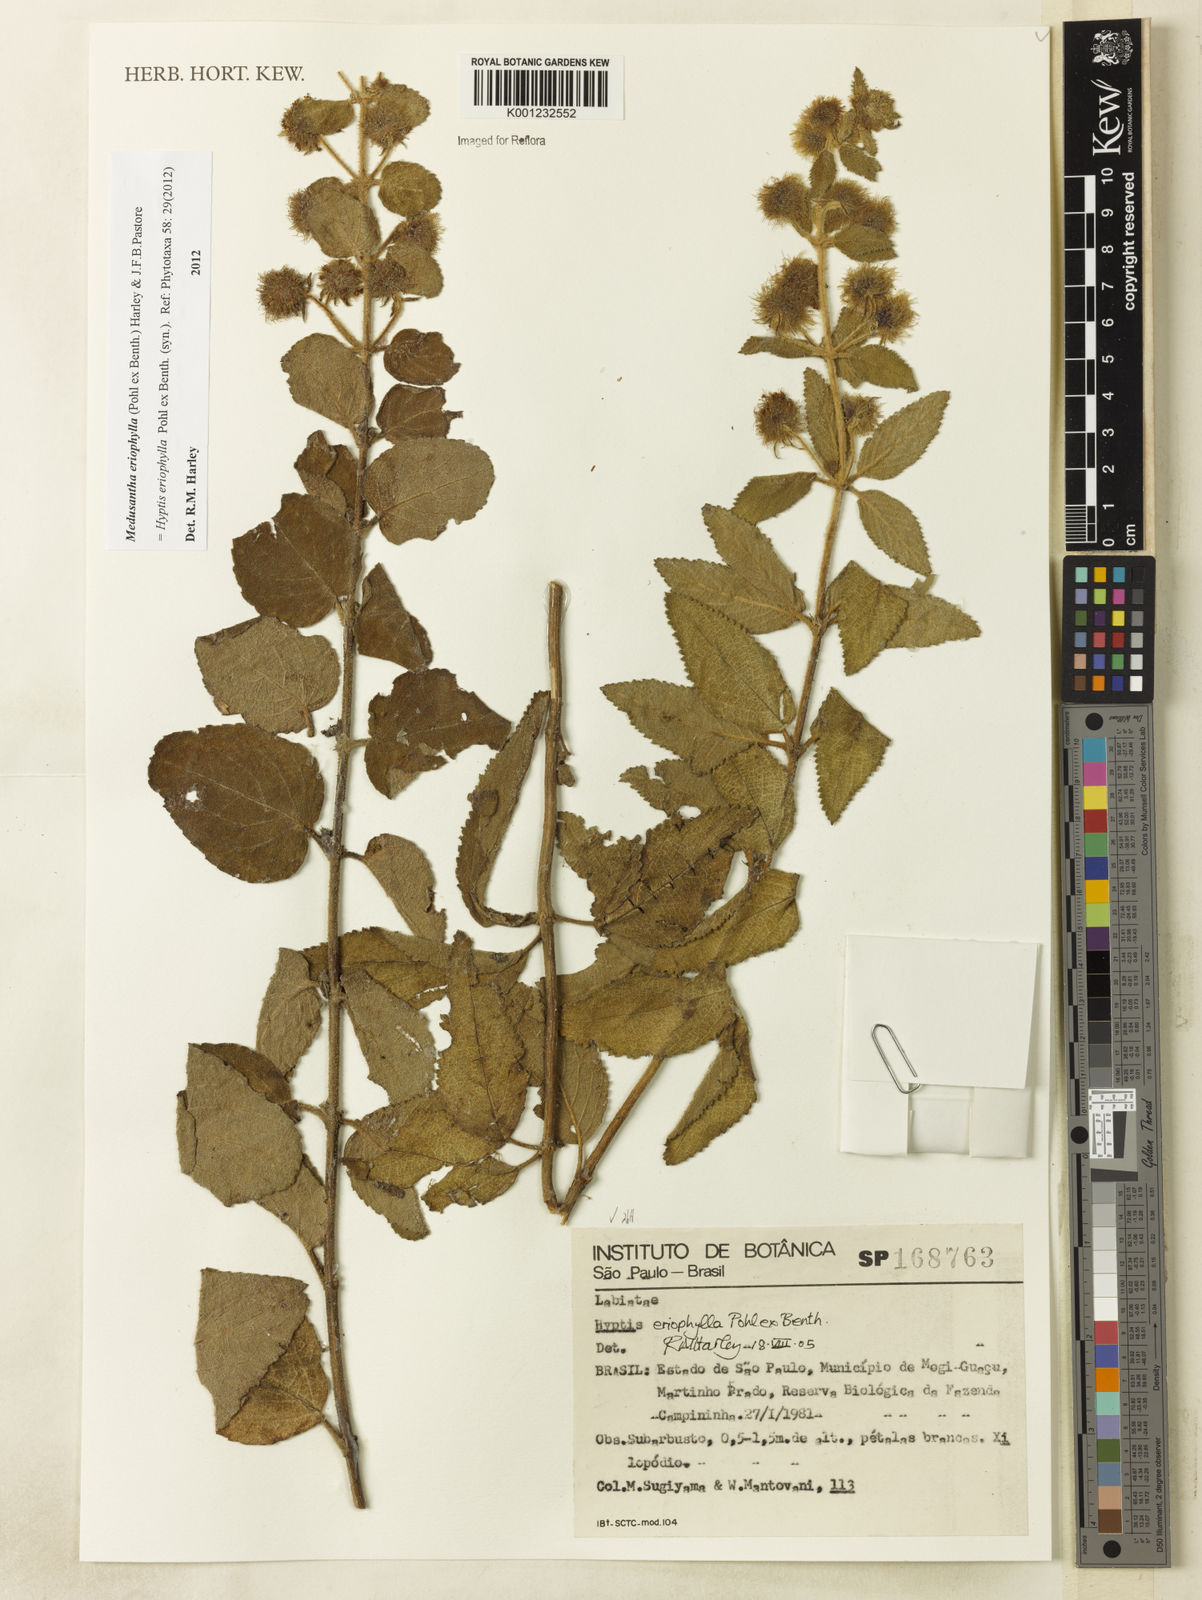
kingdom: Plantae
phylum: Tracheophyta
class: Magnoliopsida
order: Lamiales
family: Lamiaceae
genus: Medusantha
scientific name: Medusantha eriophylla
